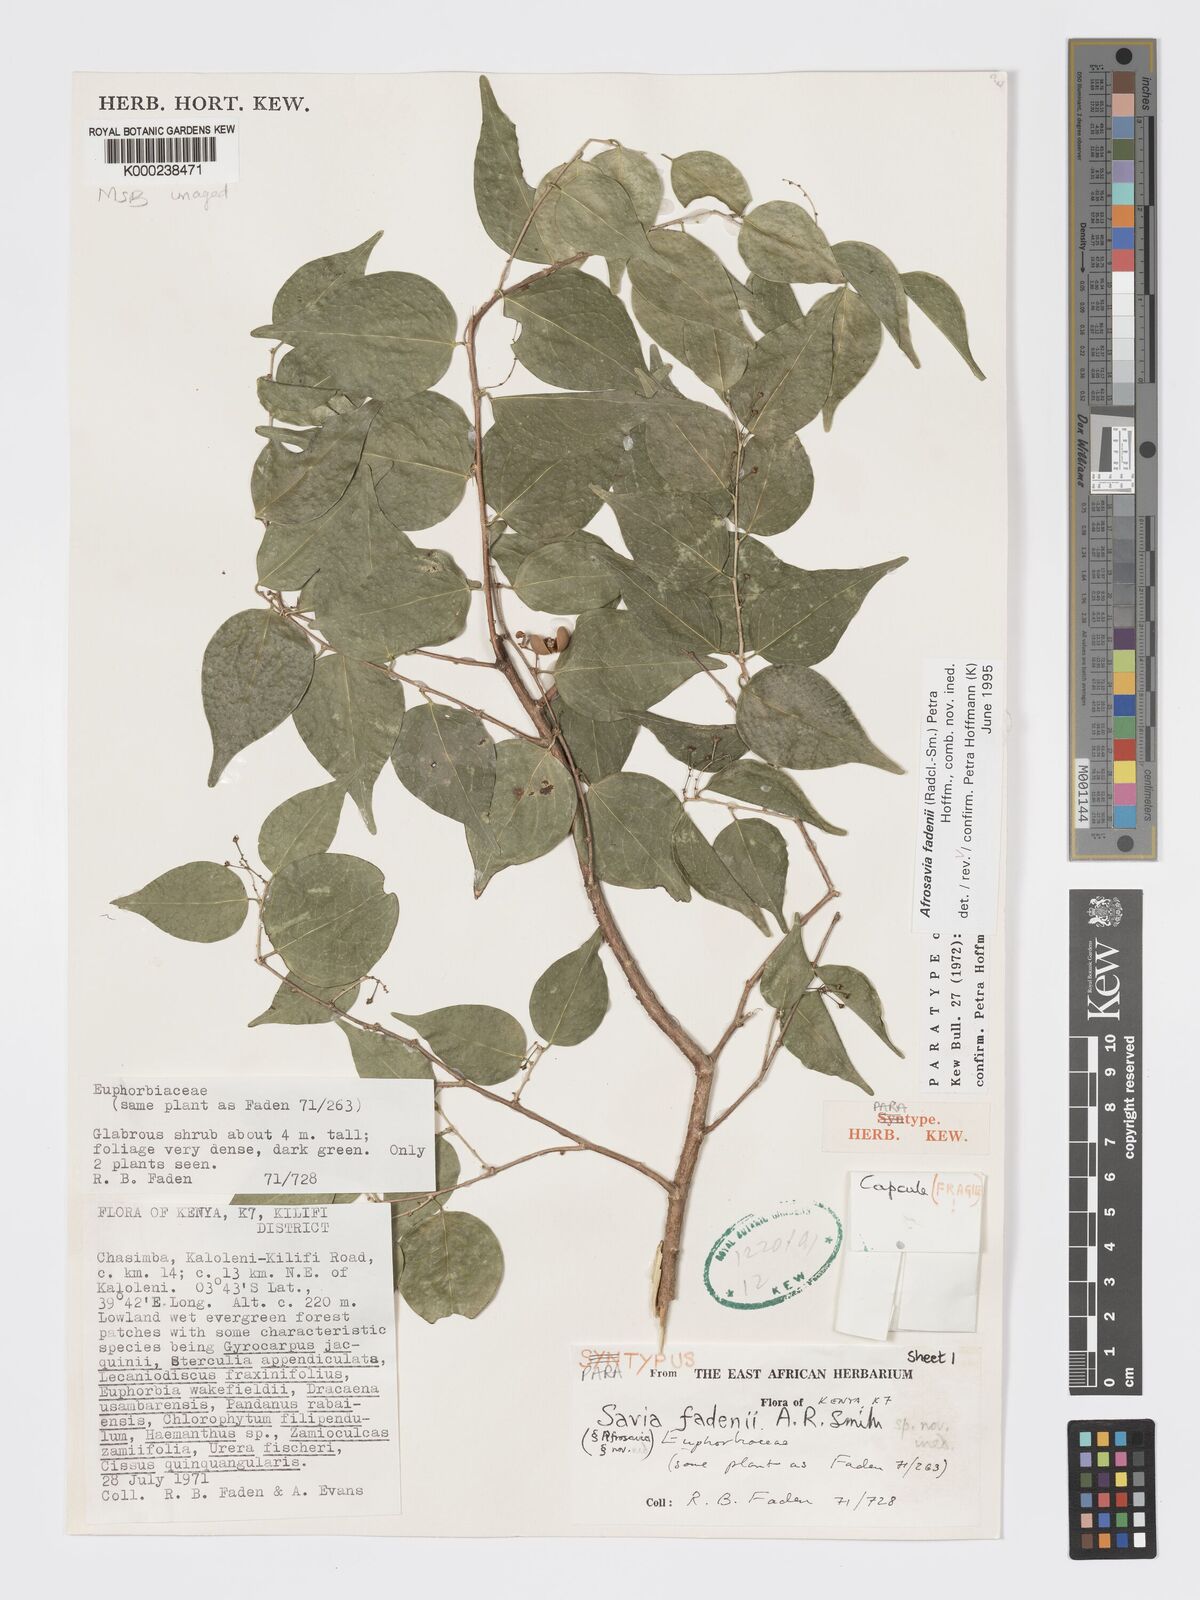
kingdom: Plantae
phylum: Tracheophyta
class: Magnoliopsida
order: Malpighiales
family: Phyllanthaceae
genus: Wielandia
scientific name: Wielandia fadenii
